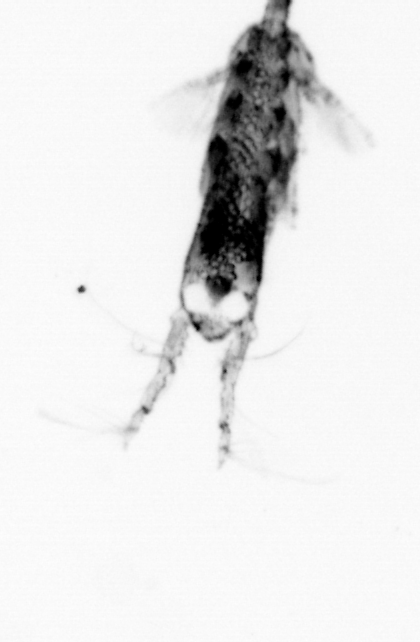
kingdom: Animalia
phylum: Arthropoda
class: Copepoda
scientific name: Copepoda
